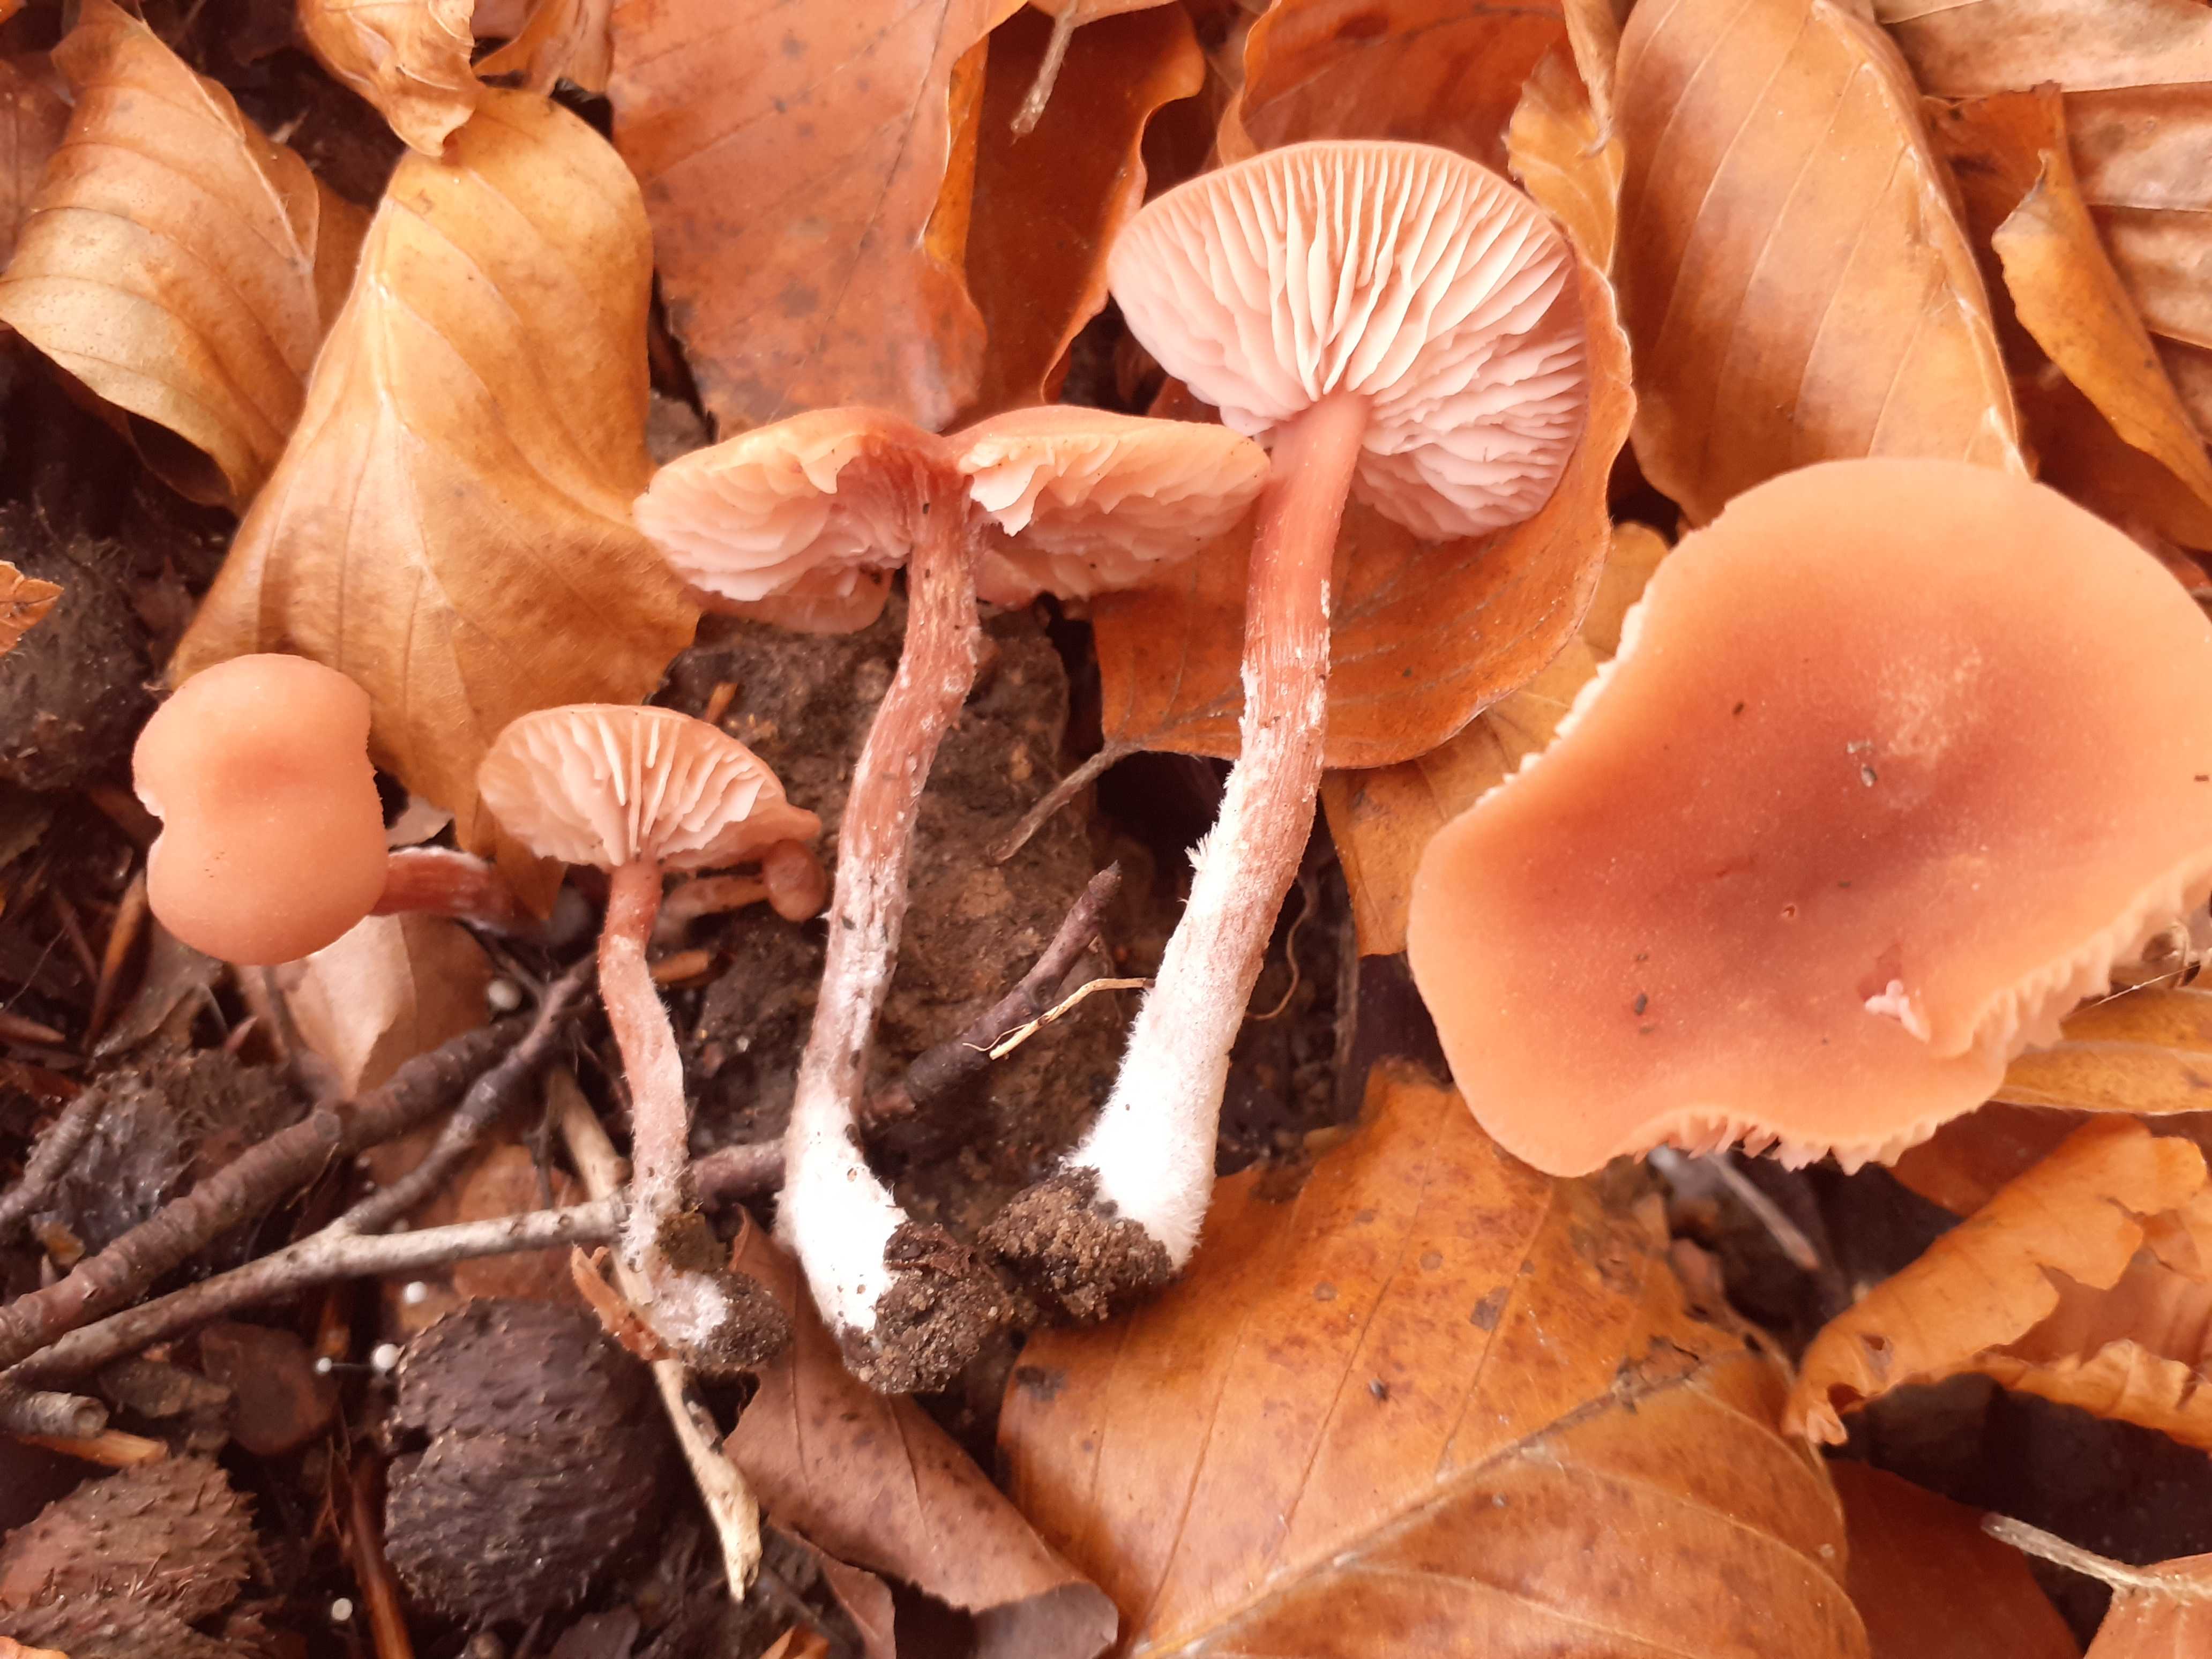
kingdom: Fungi
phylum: Basidiomycota
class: Agaricomycetes
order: Agaricales
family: Hydnangiaceae
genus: Laccaria
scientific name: Laccaria
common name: ametysthat
